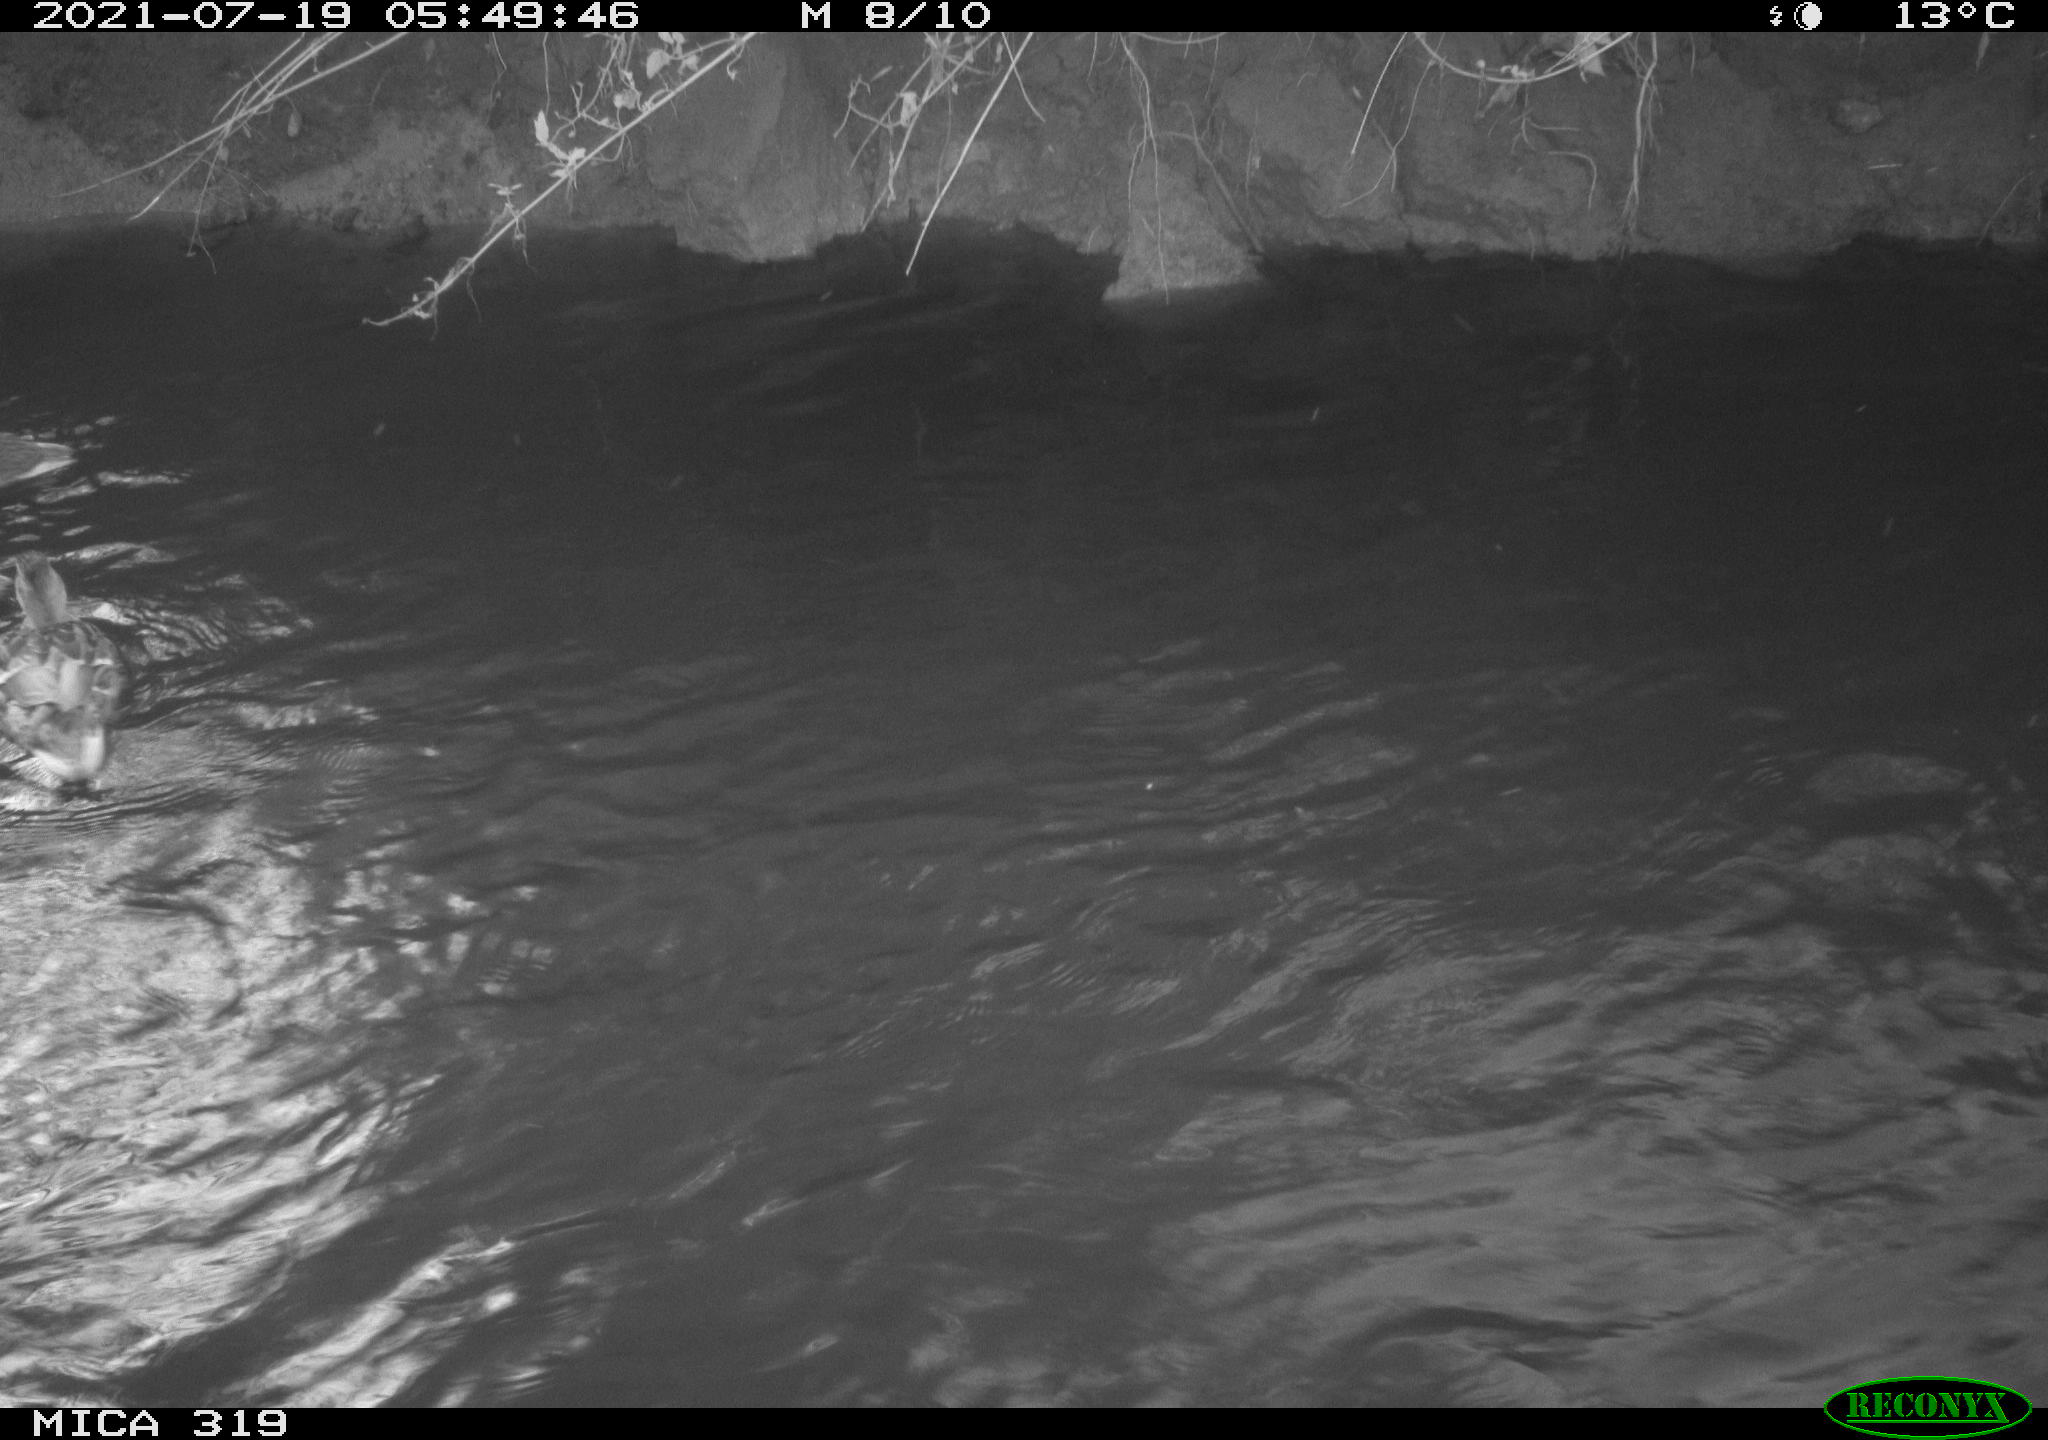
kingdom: Animalia
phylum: Chordata
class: Aves
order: Anseriformes
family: Anatidae
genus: Anas
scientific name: Anas platyrhynchos
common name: Mallard
